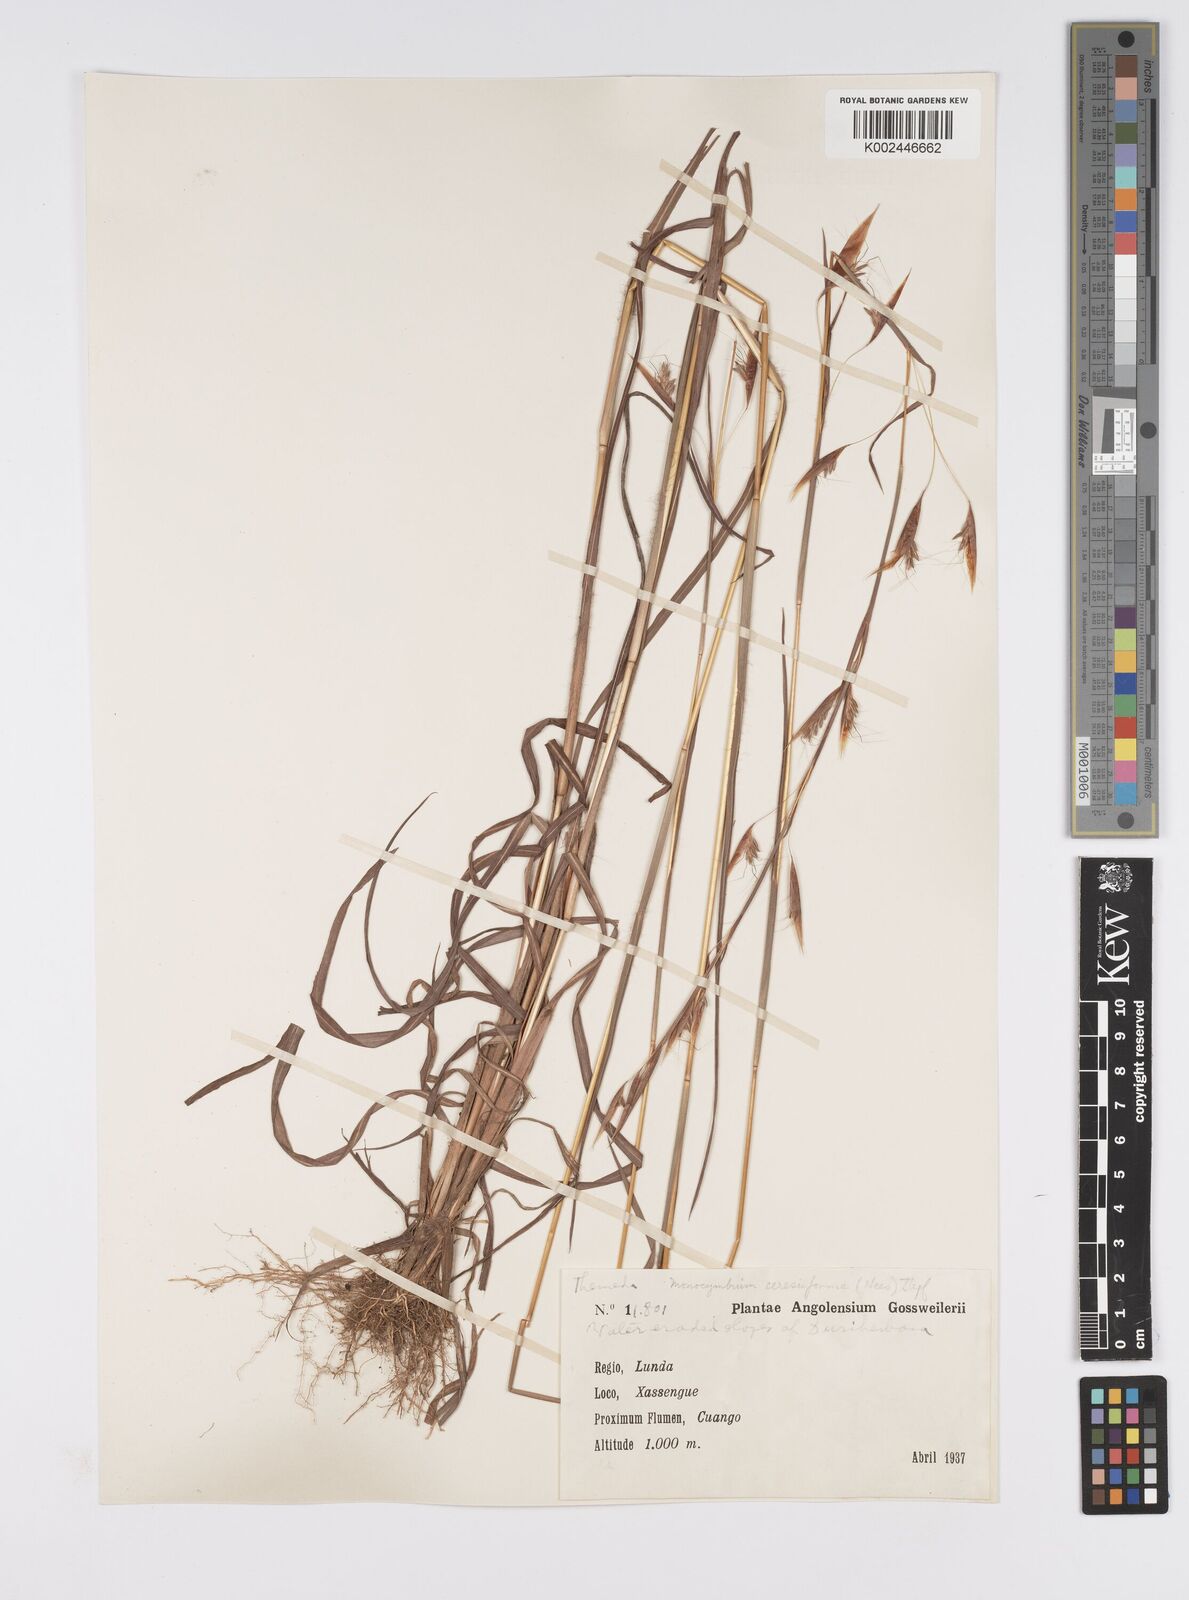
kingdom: Plantae
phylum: Tracheophyta
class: Liliopsida
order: Poales
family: Poaceae
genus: Monocymbium
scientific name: Monocymbium ceresiiforme
